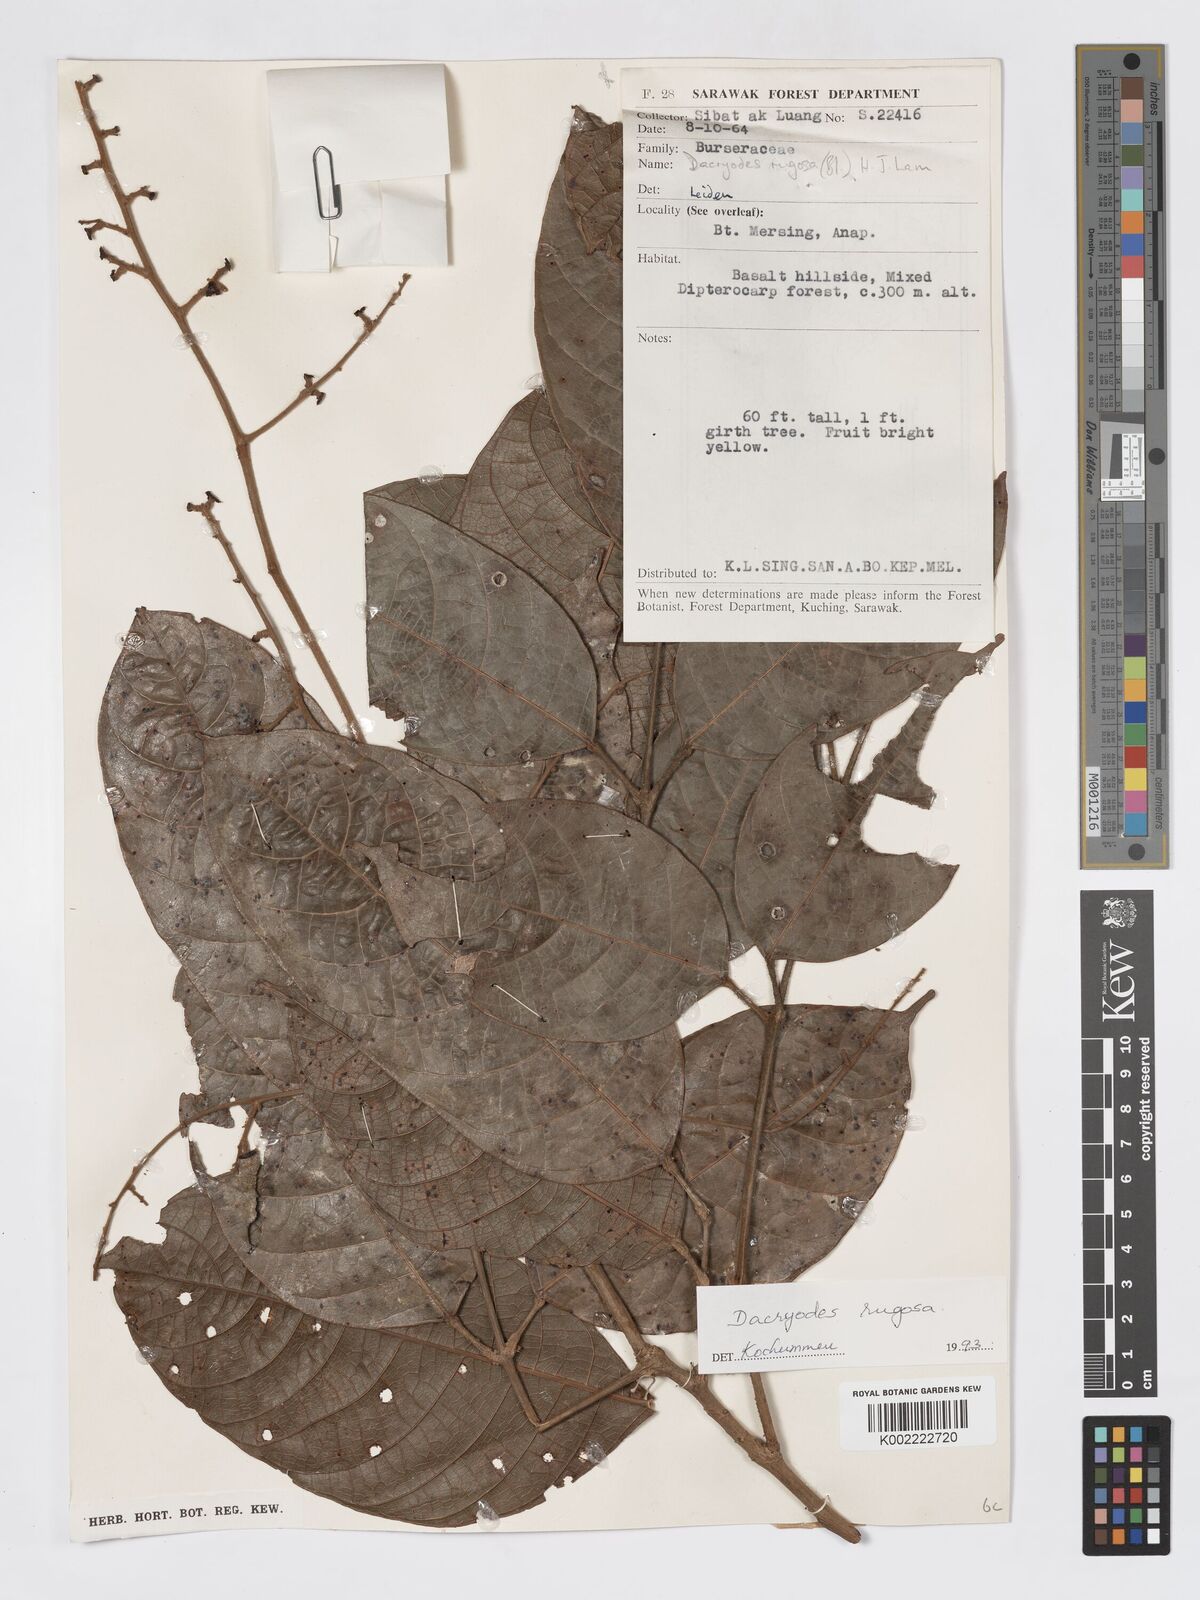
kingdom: Plantae
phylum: Tracheophyta
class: Magnoliopsida
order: Sapindales
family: Burseraceae
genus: Dacryodes
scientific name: Dacryodes rugosa
